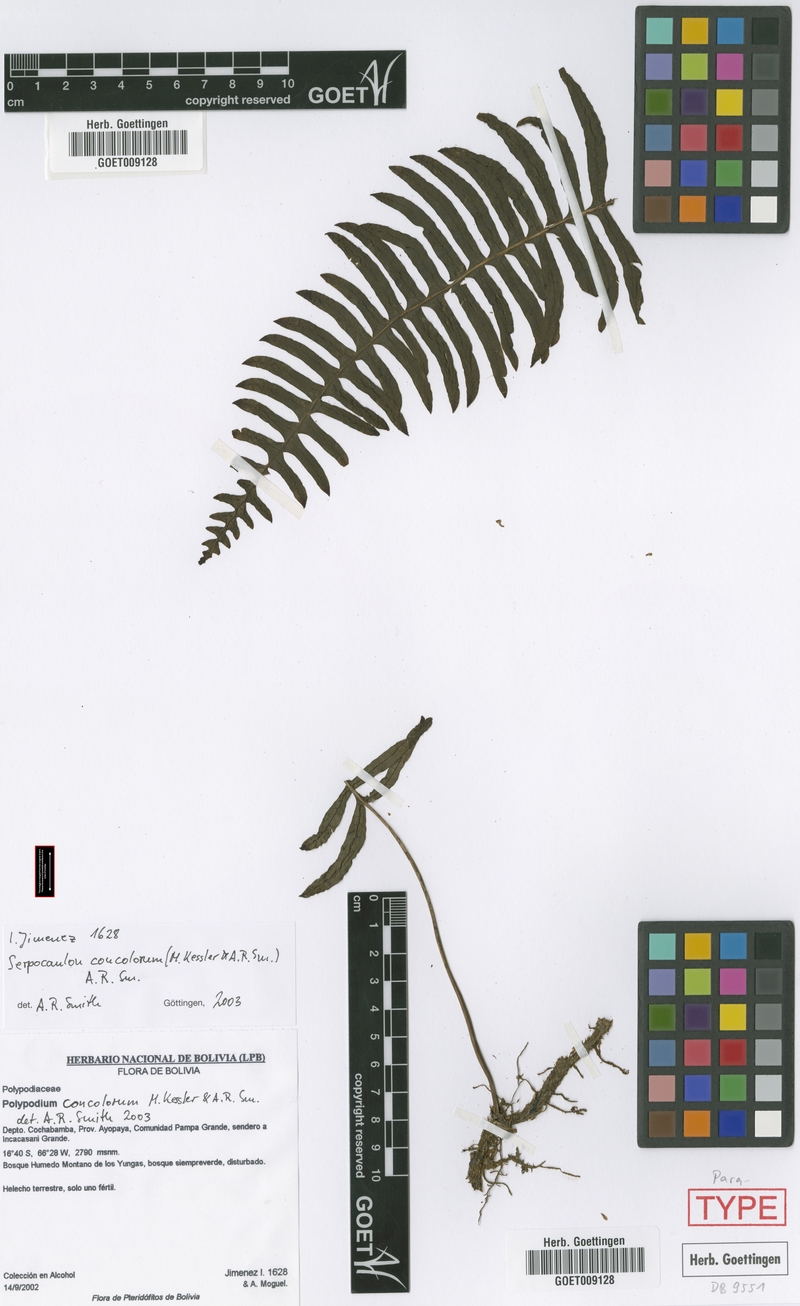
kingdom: Plantae
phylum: Tracheophyta
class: Polypodiopsida
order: Polypodiales
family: Polypodiaceae
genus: Serpocaulon
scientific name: Serpocaulon concolorum
